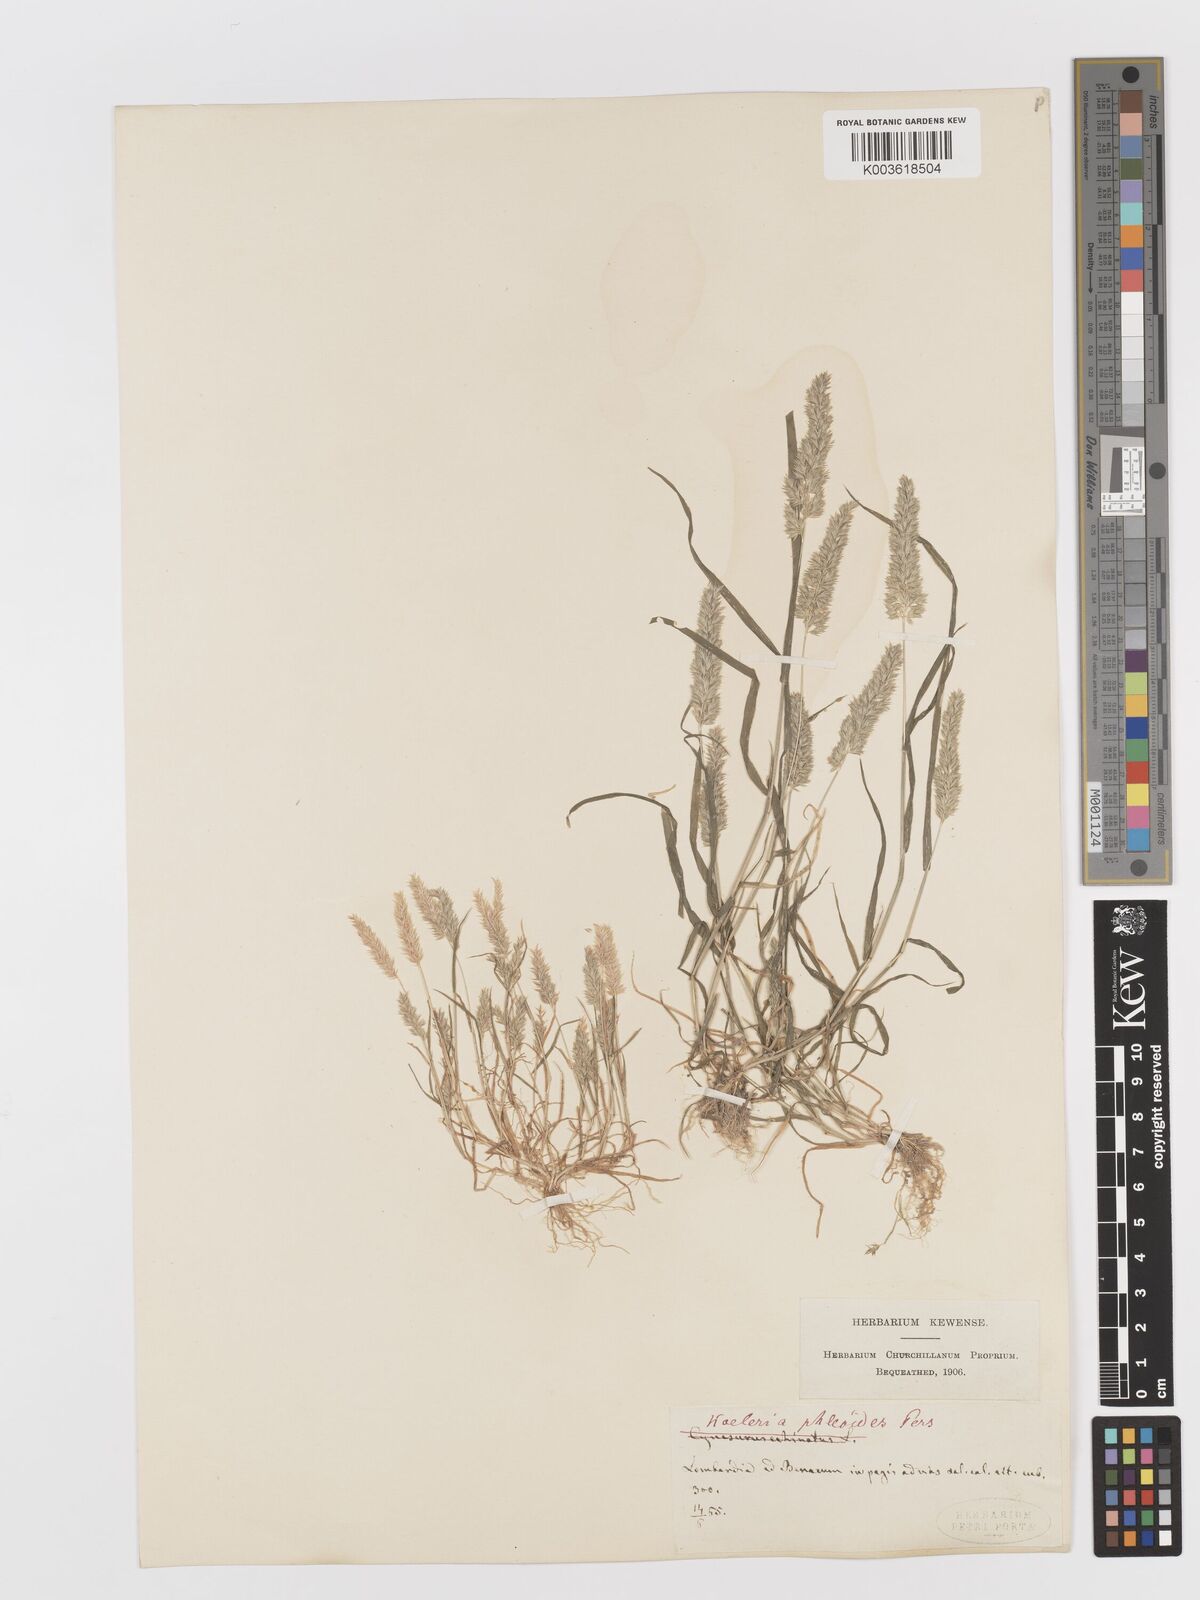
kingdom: Plantae
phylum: Tracheophyta
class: Liliopsida
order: Poales
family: Poaceae
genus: Rostraria
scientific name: Rostraria cristata
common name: Mediterranean hair-grass
